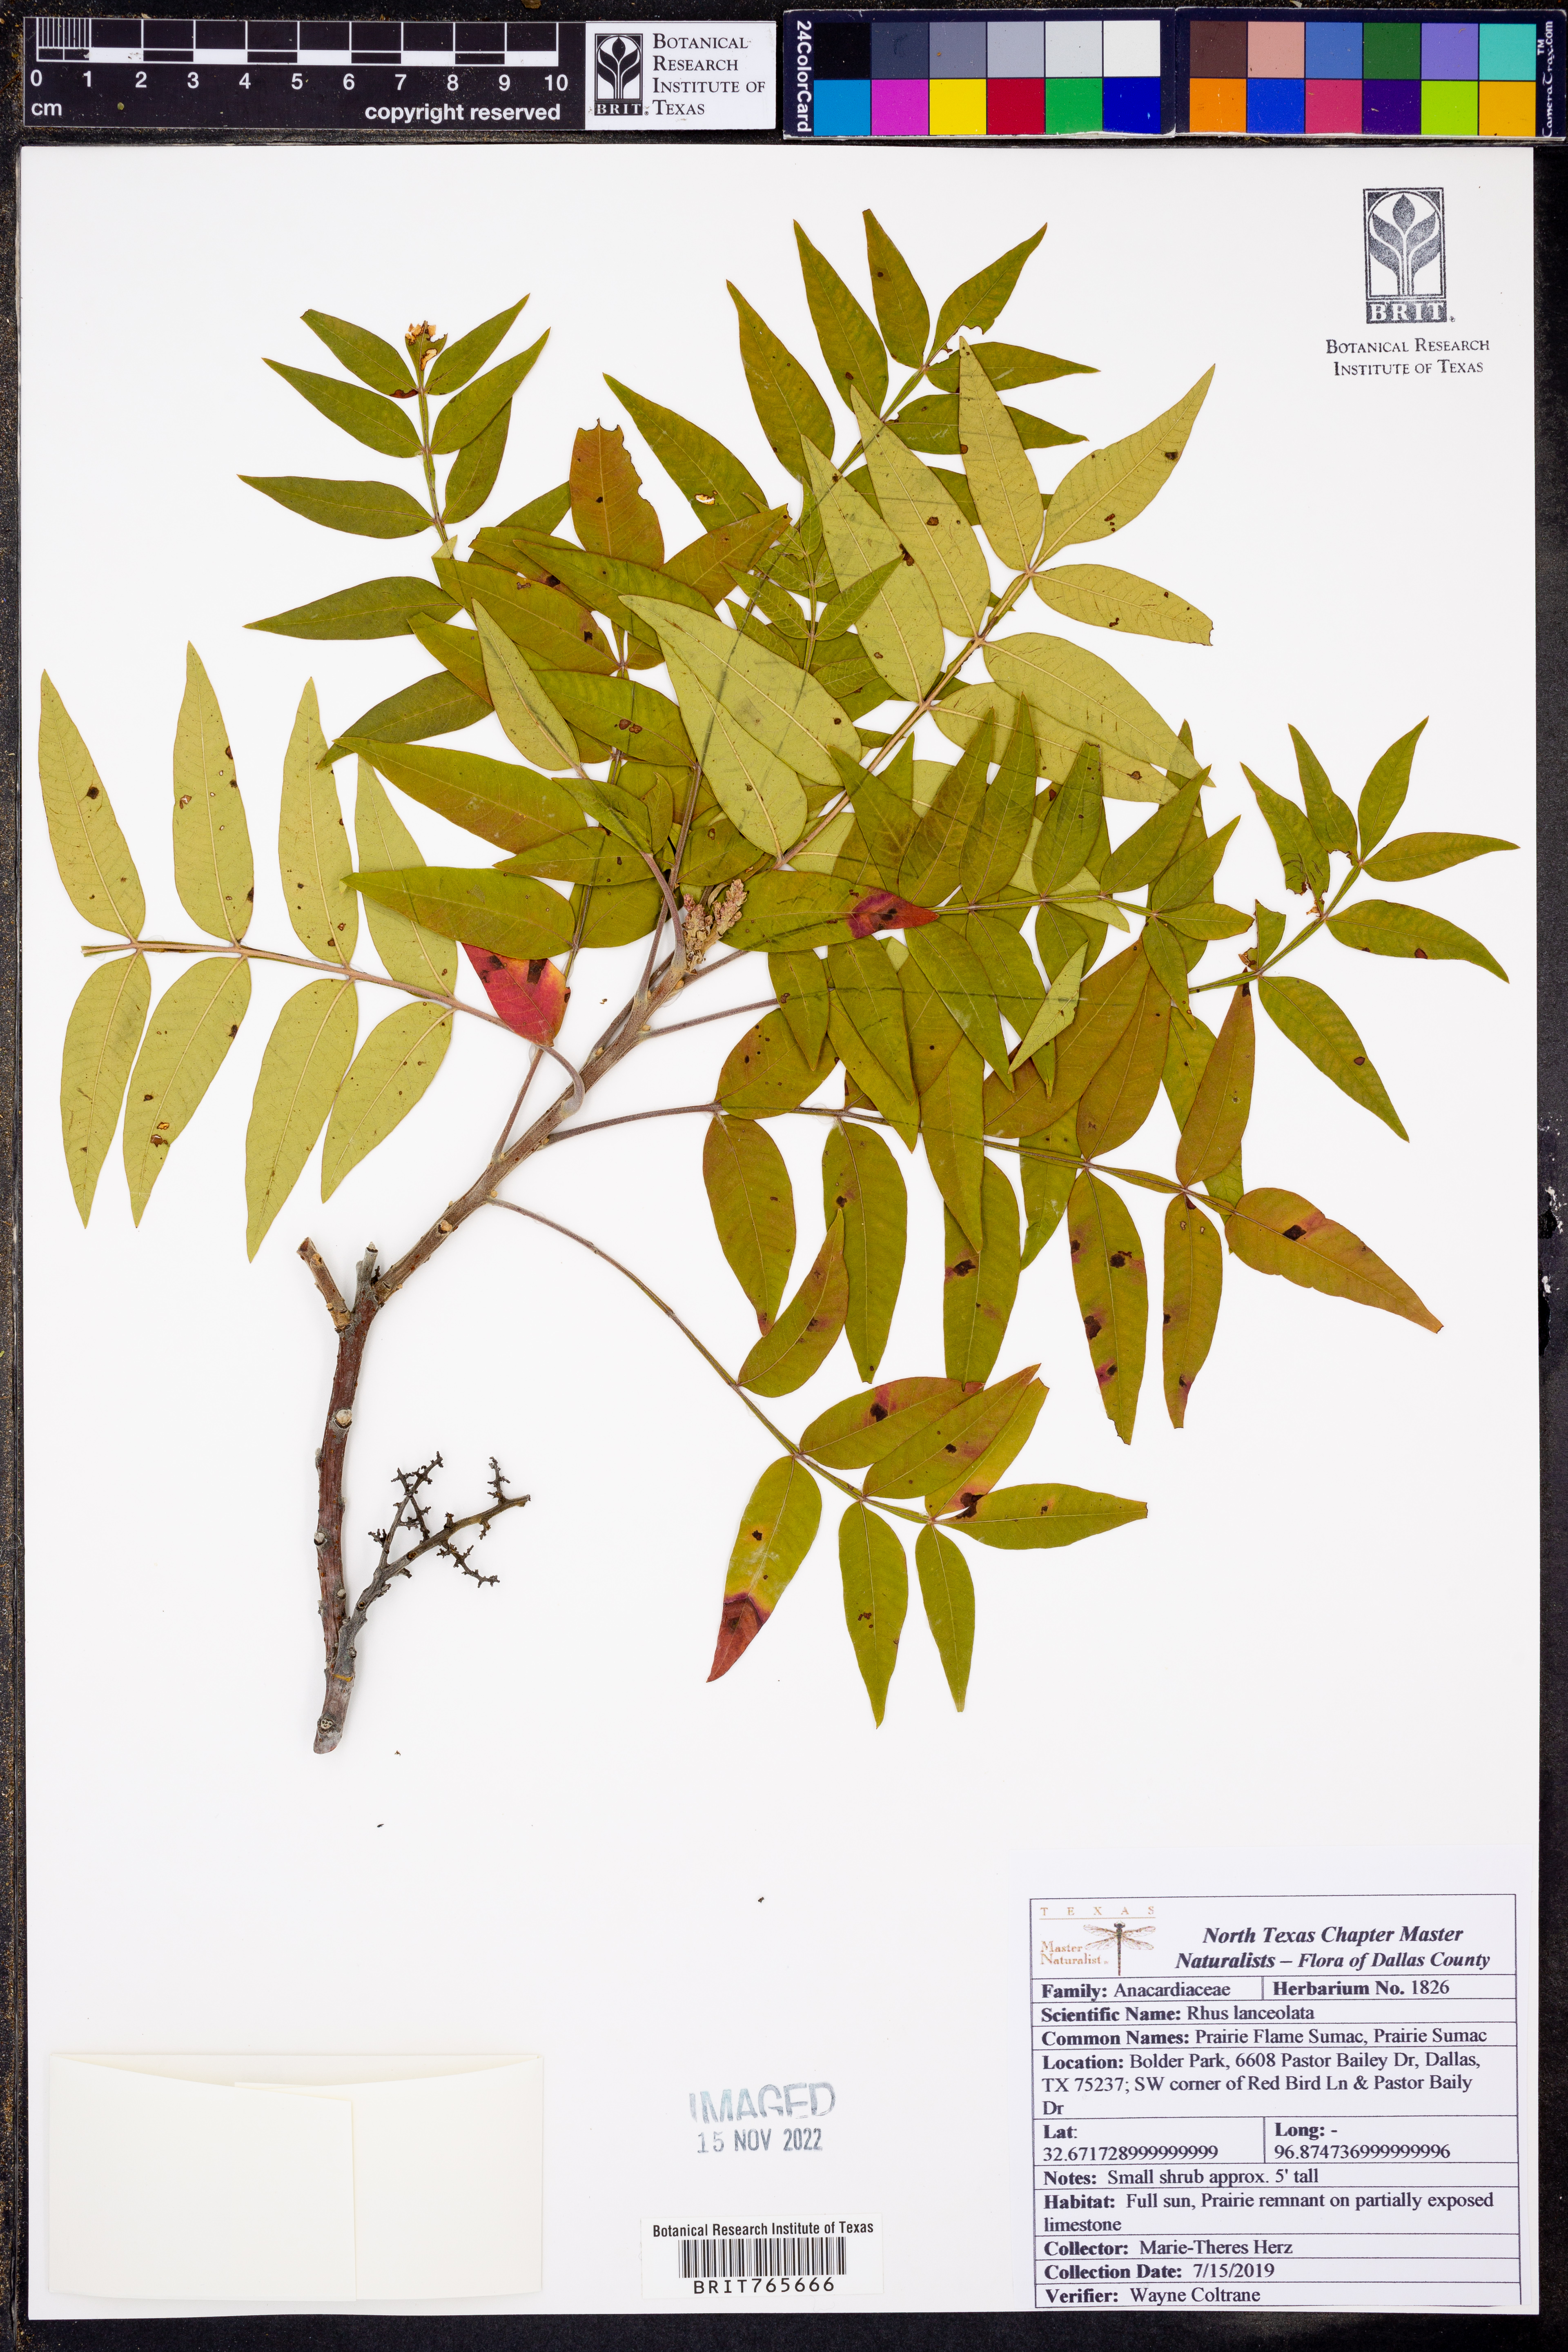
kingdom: Plantae
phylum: Tracheophyta
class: Magnoliopsida
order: Sapindales
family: Anacardiaceae
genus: Rhus
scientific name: Rhus lanceolata
